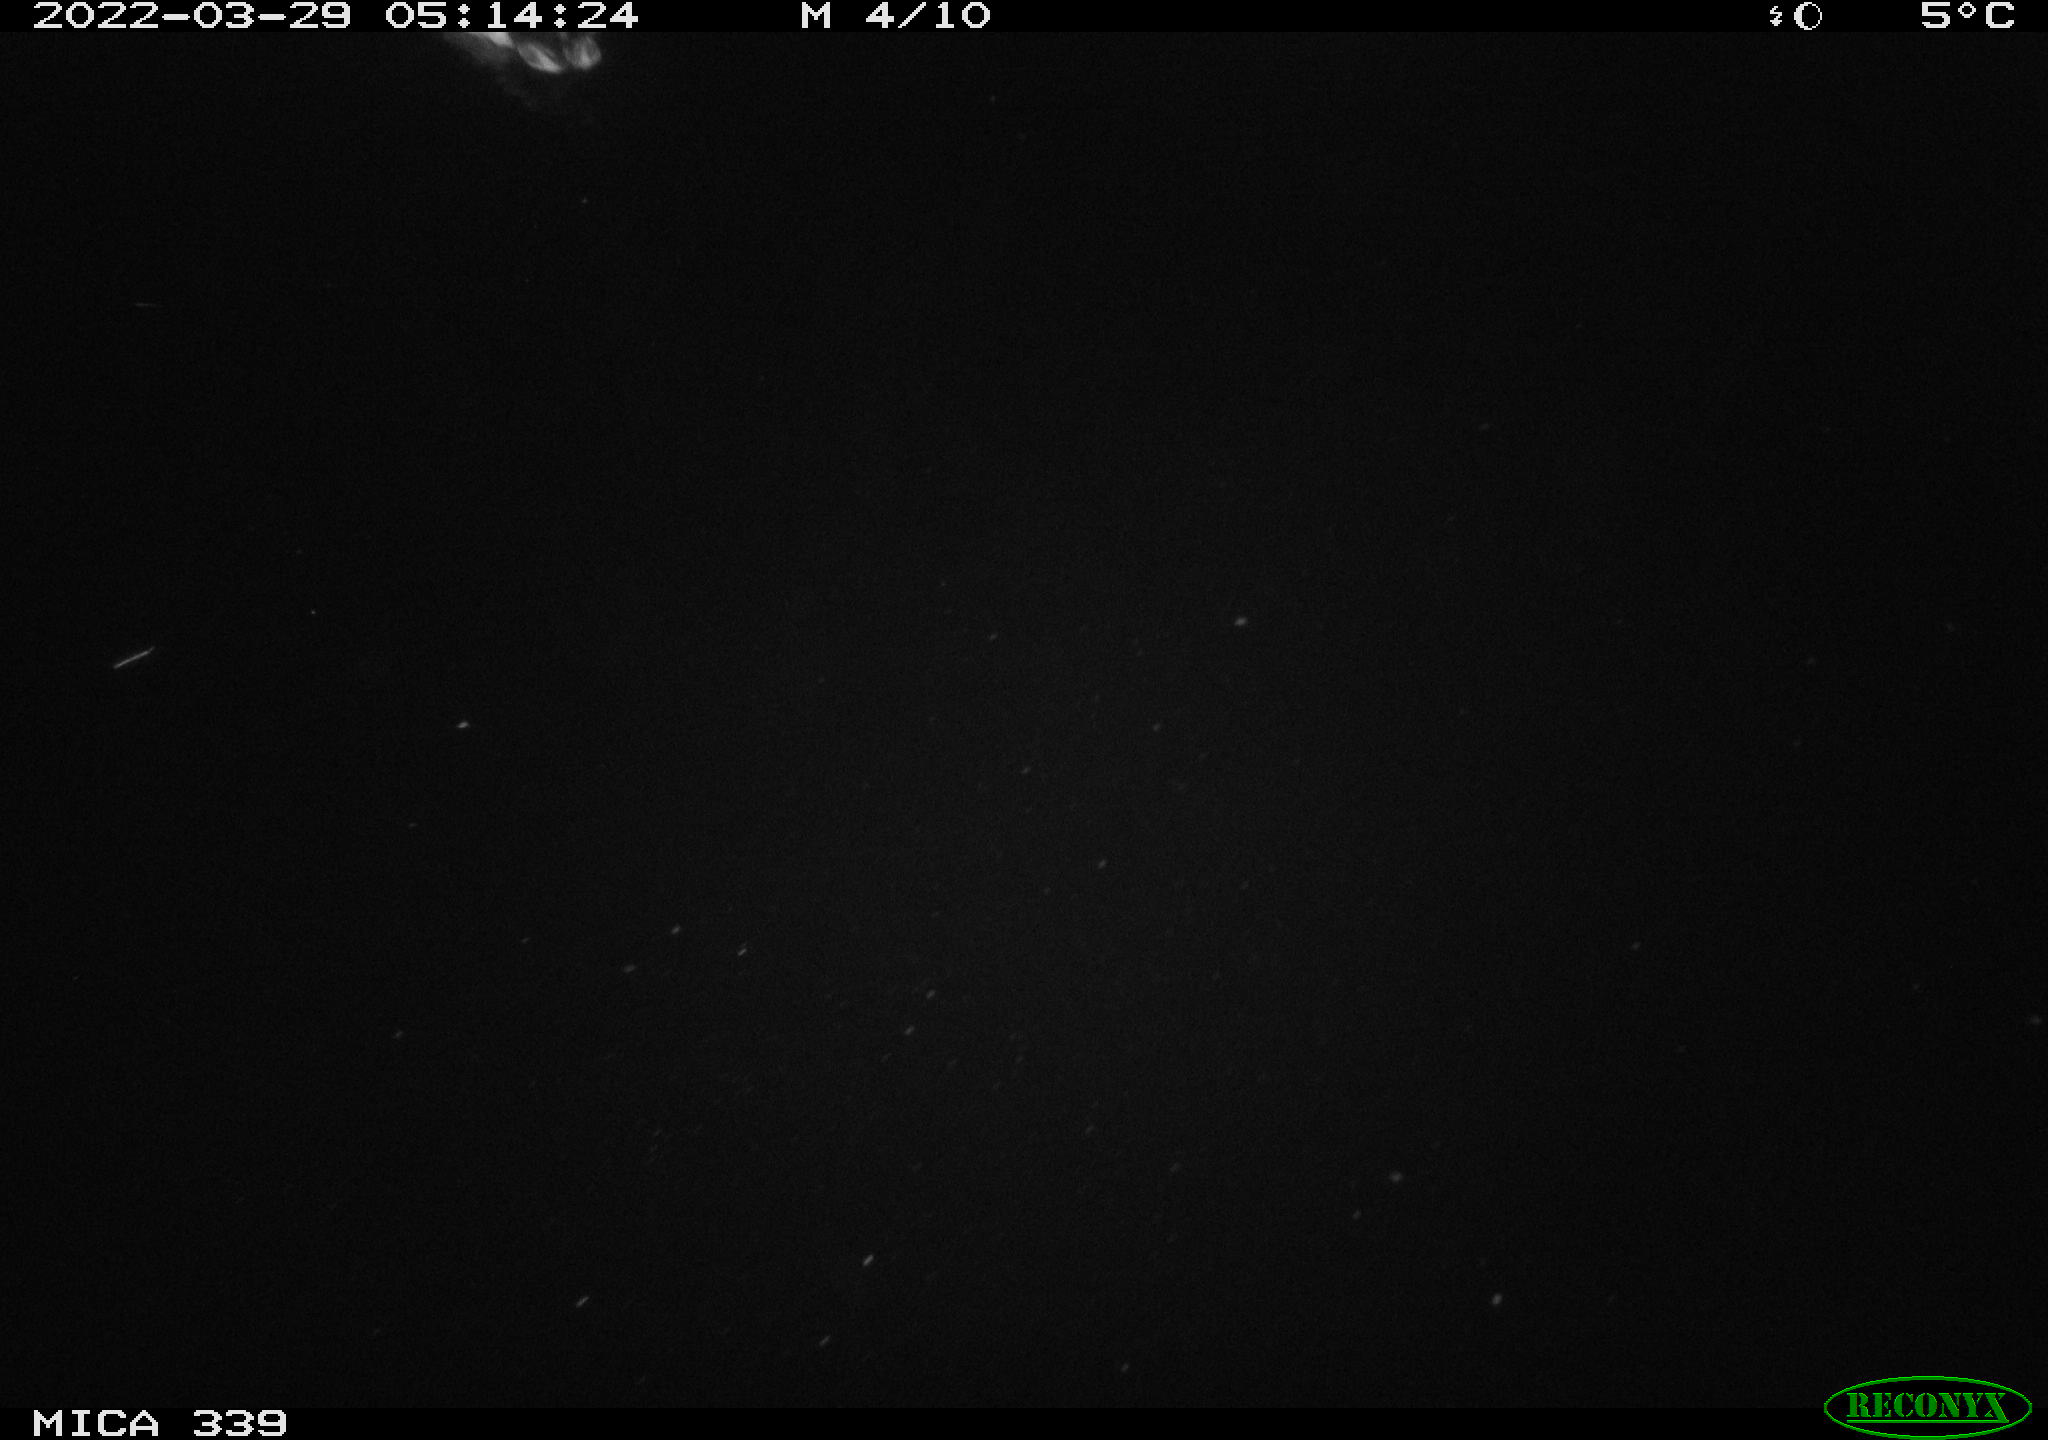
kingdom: Animalia
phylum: Chordata
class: Aves
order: Anseriformes
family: Anatidae
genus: Anas
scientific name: Anas platyrhynchos
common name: Mallard
